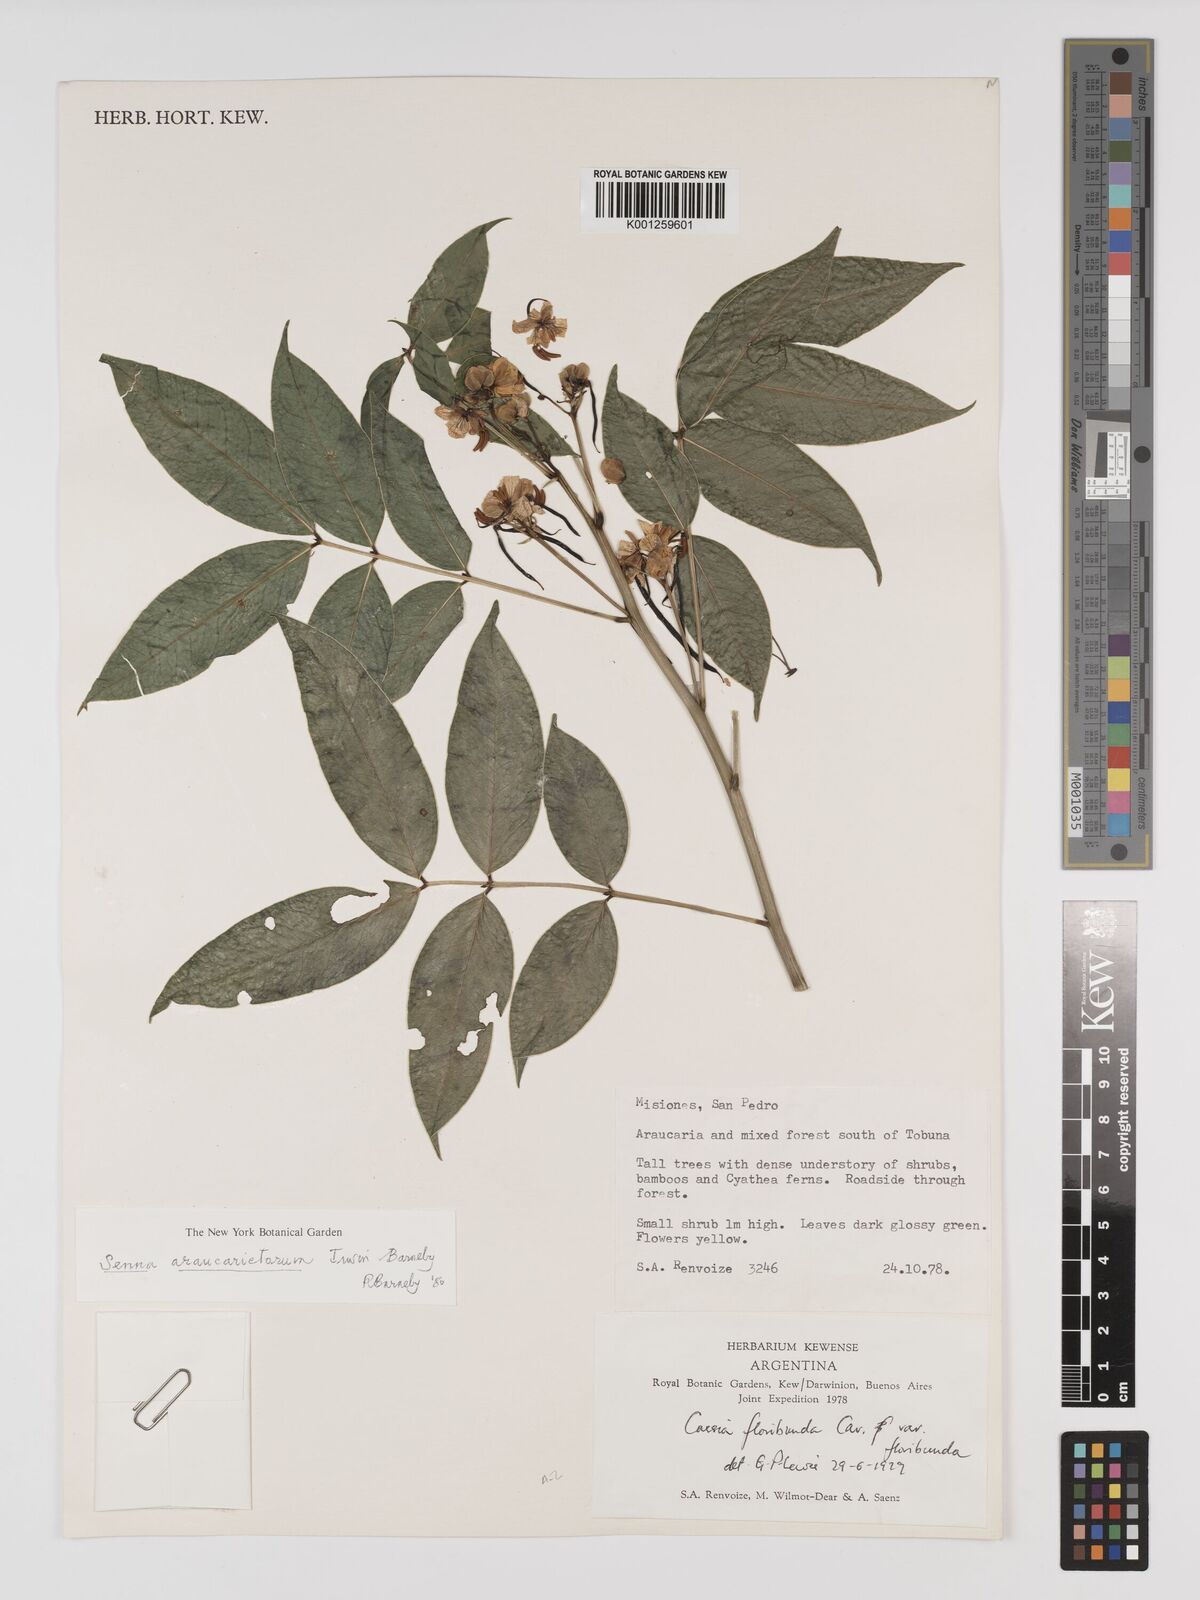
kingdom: Plantae
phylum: Tracheophyta
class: Magnoliopsida
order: Fabales
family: Fabaceae
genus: Senna
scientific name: Senna
